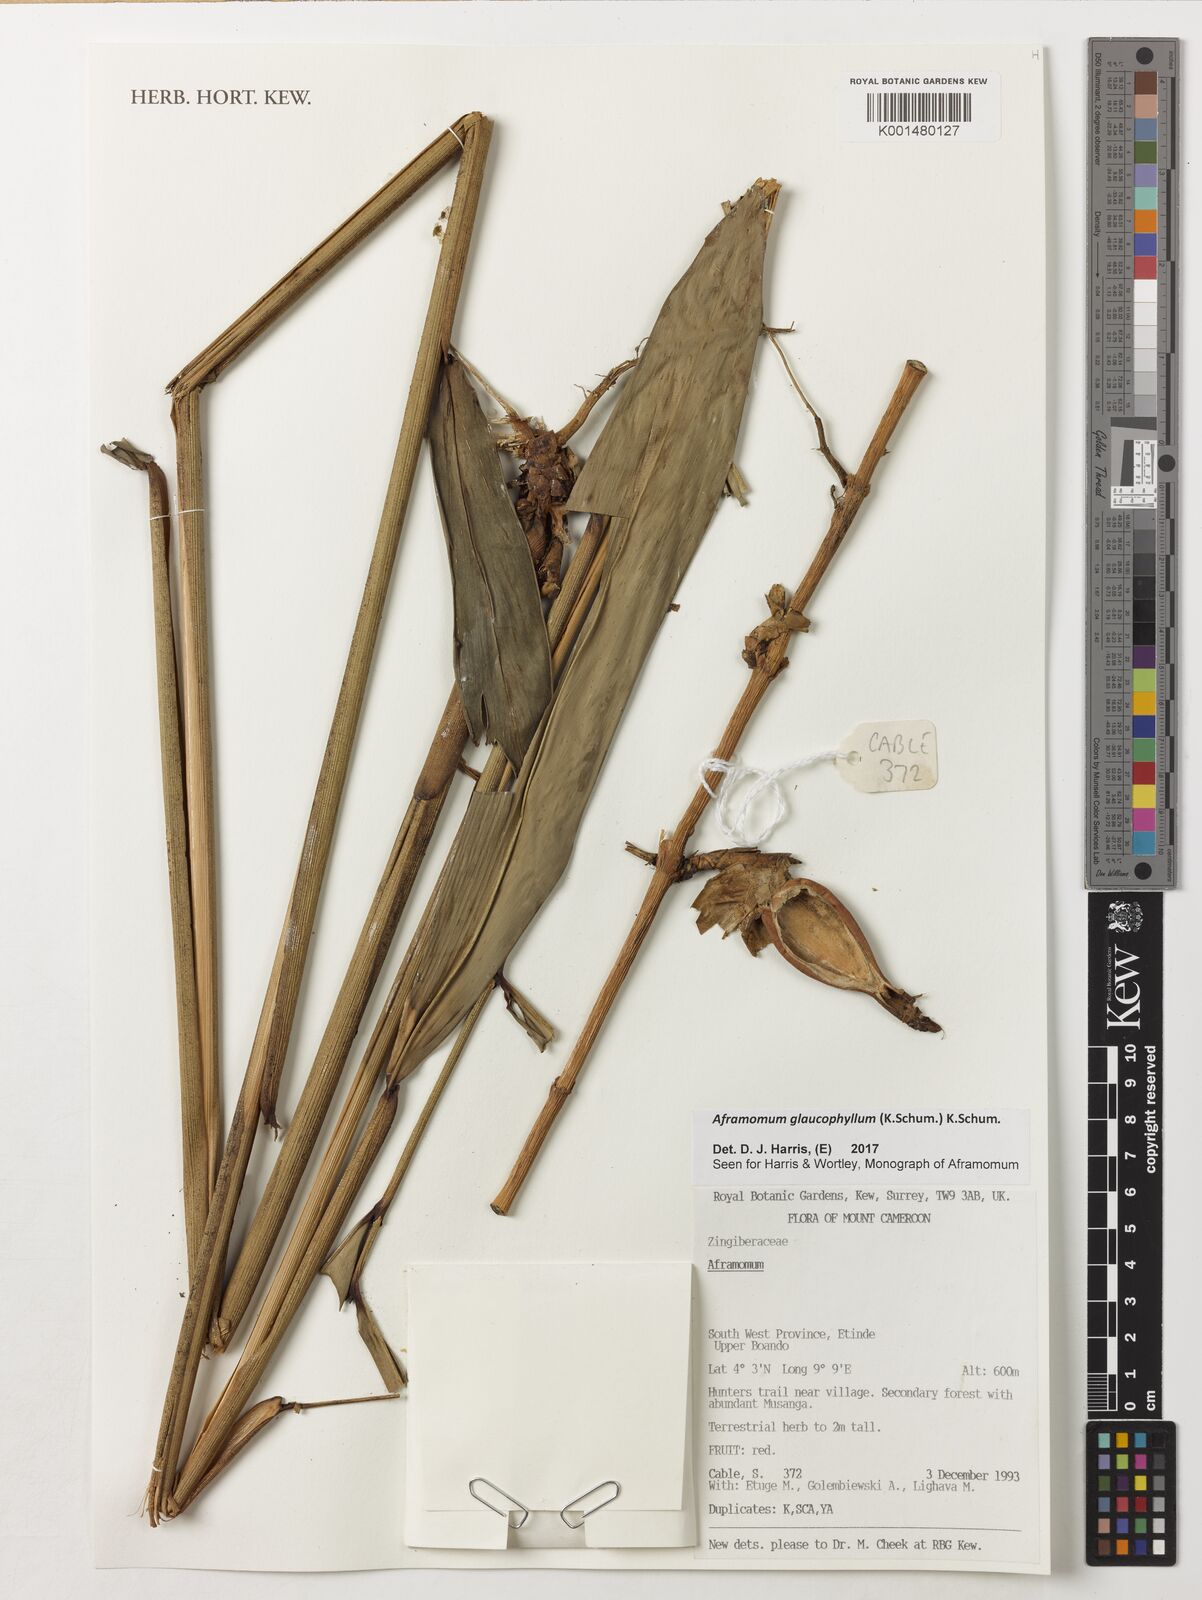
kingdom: Plantae
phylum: Tracheophyta
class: Liliopsida
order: Zingiberales
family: Zingiberaceae
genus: Aframomum
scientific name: Aframomum glaucophyllum
